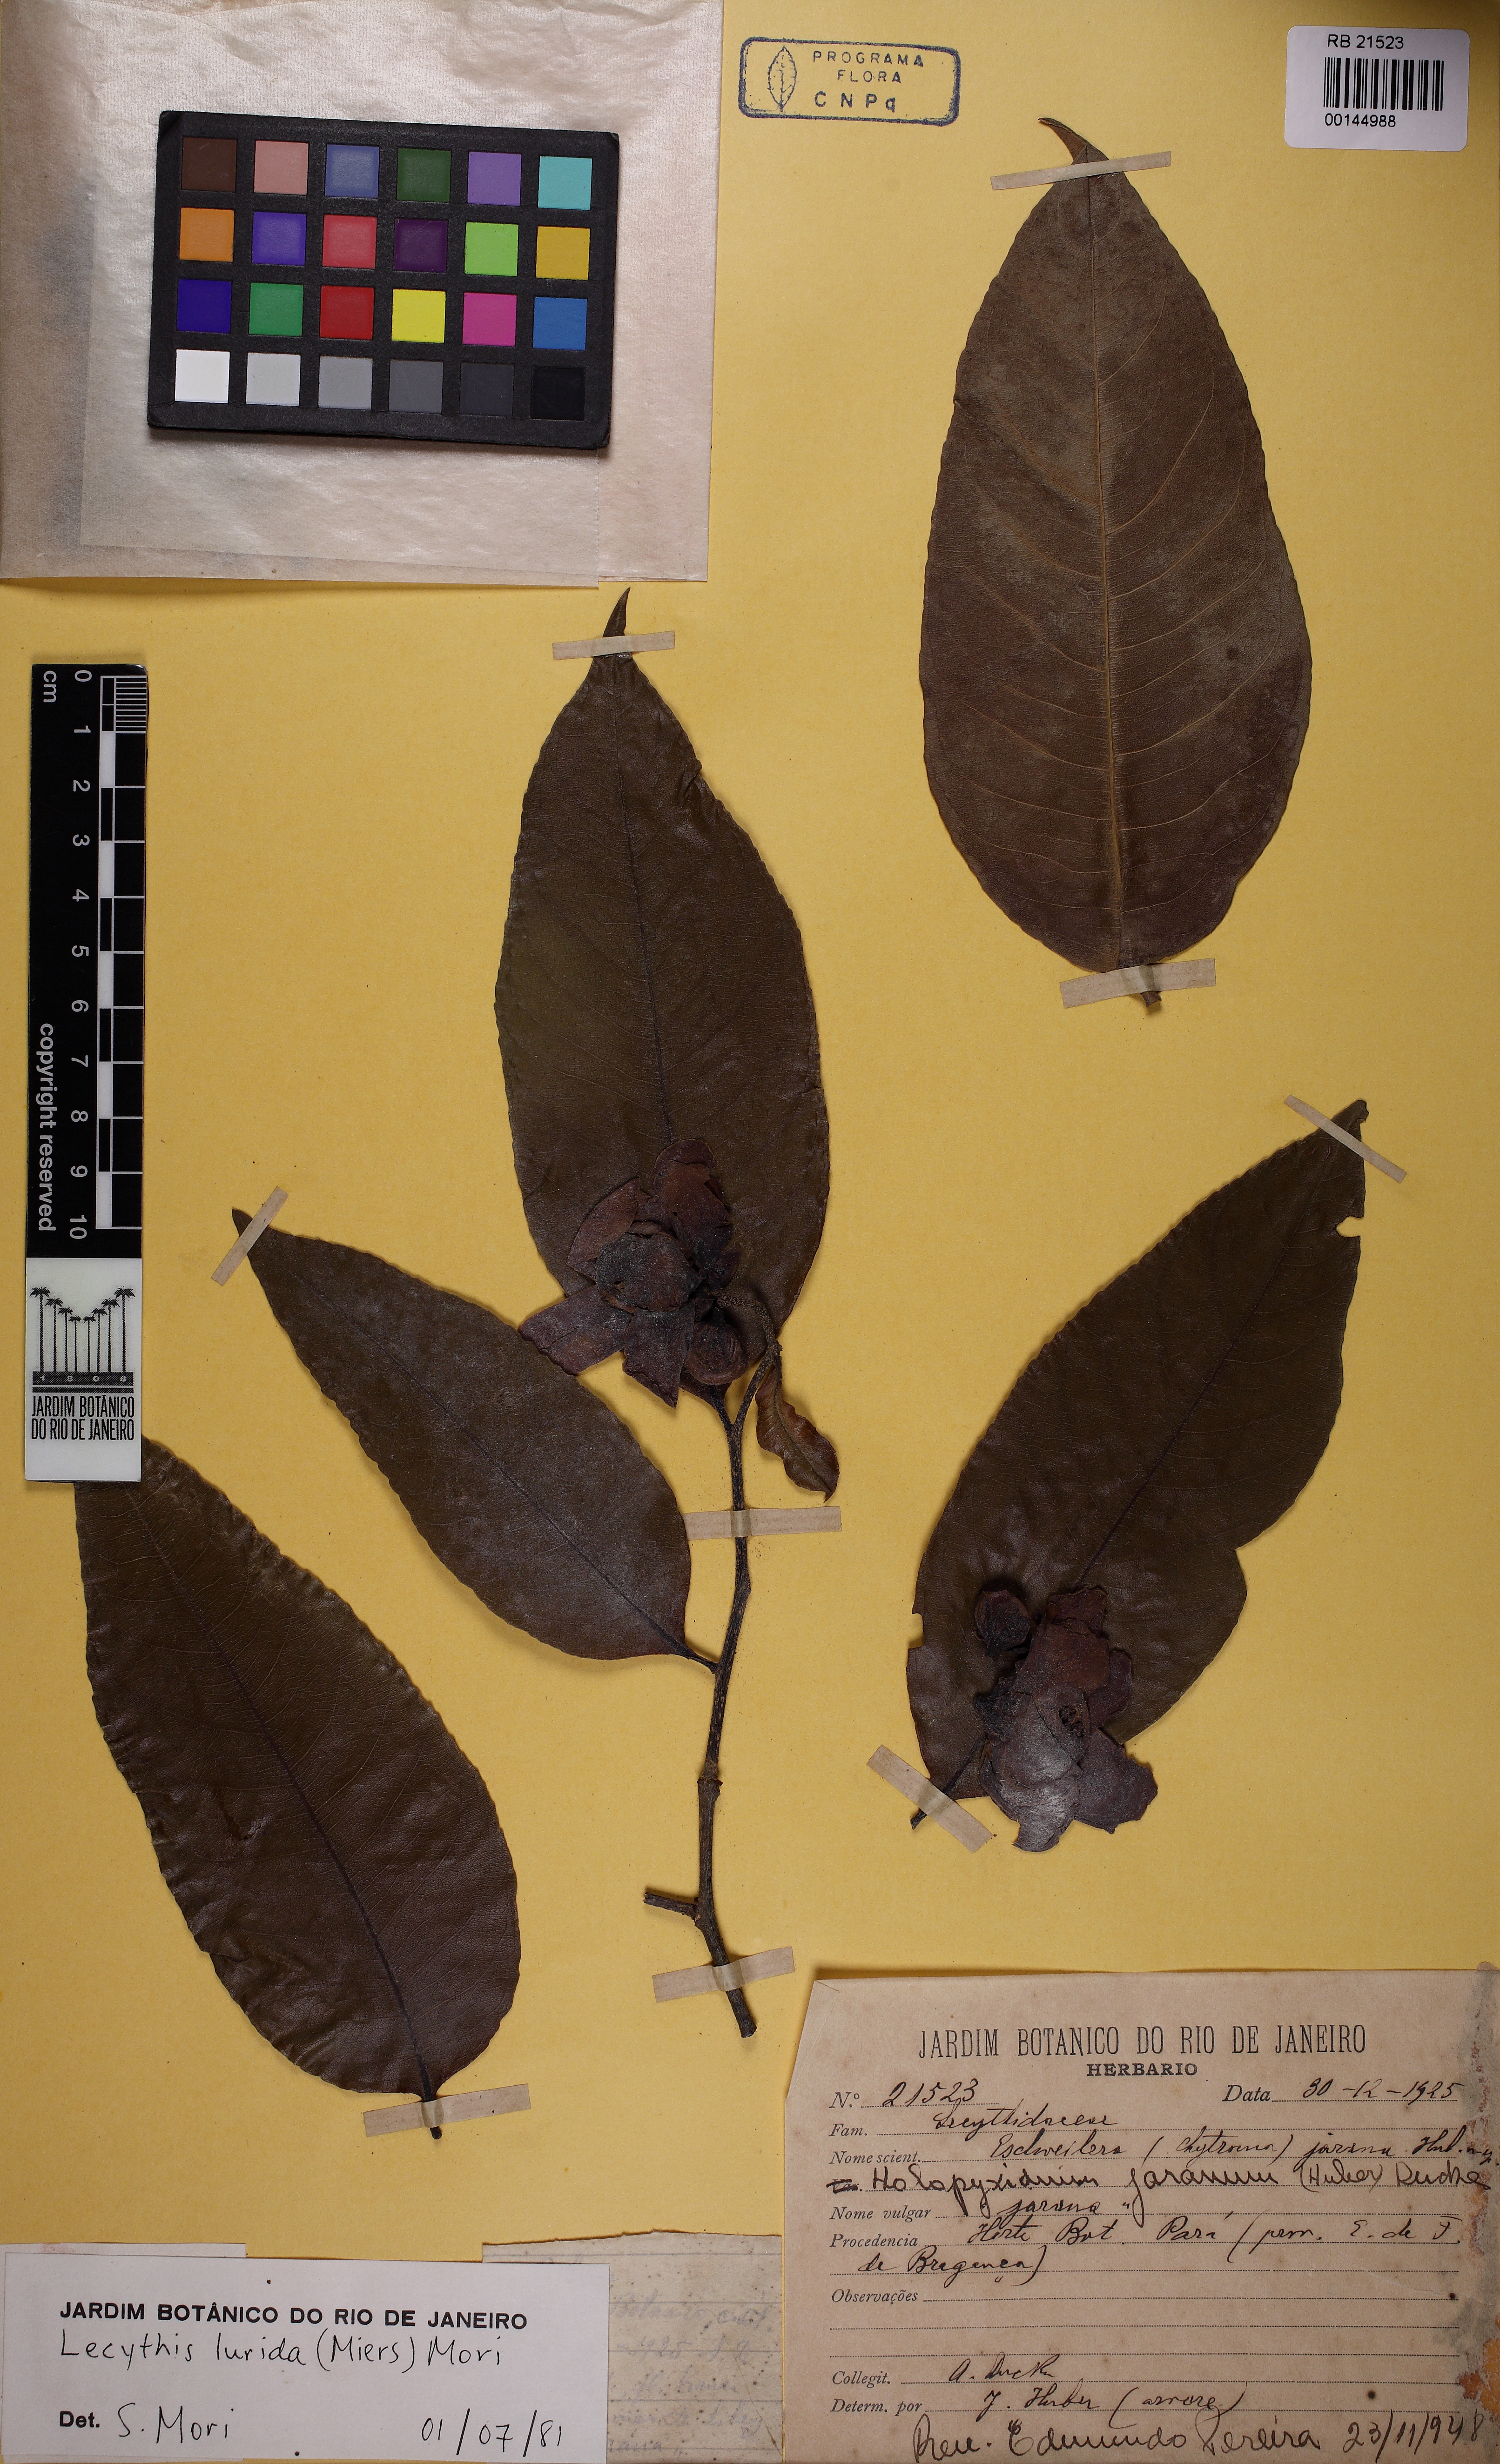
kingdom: Plantae
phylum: Tracheophyta
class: Magnoliopsida
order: Ericales
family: Lecythidaceae
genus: Lecythis
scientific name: Lecythis lurida
